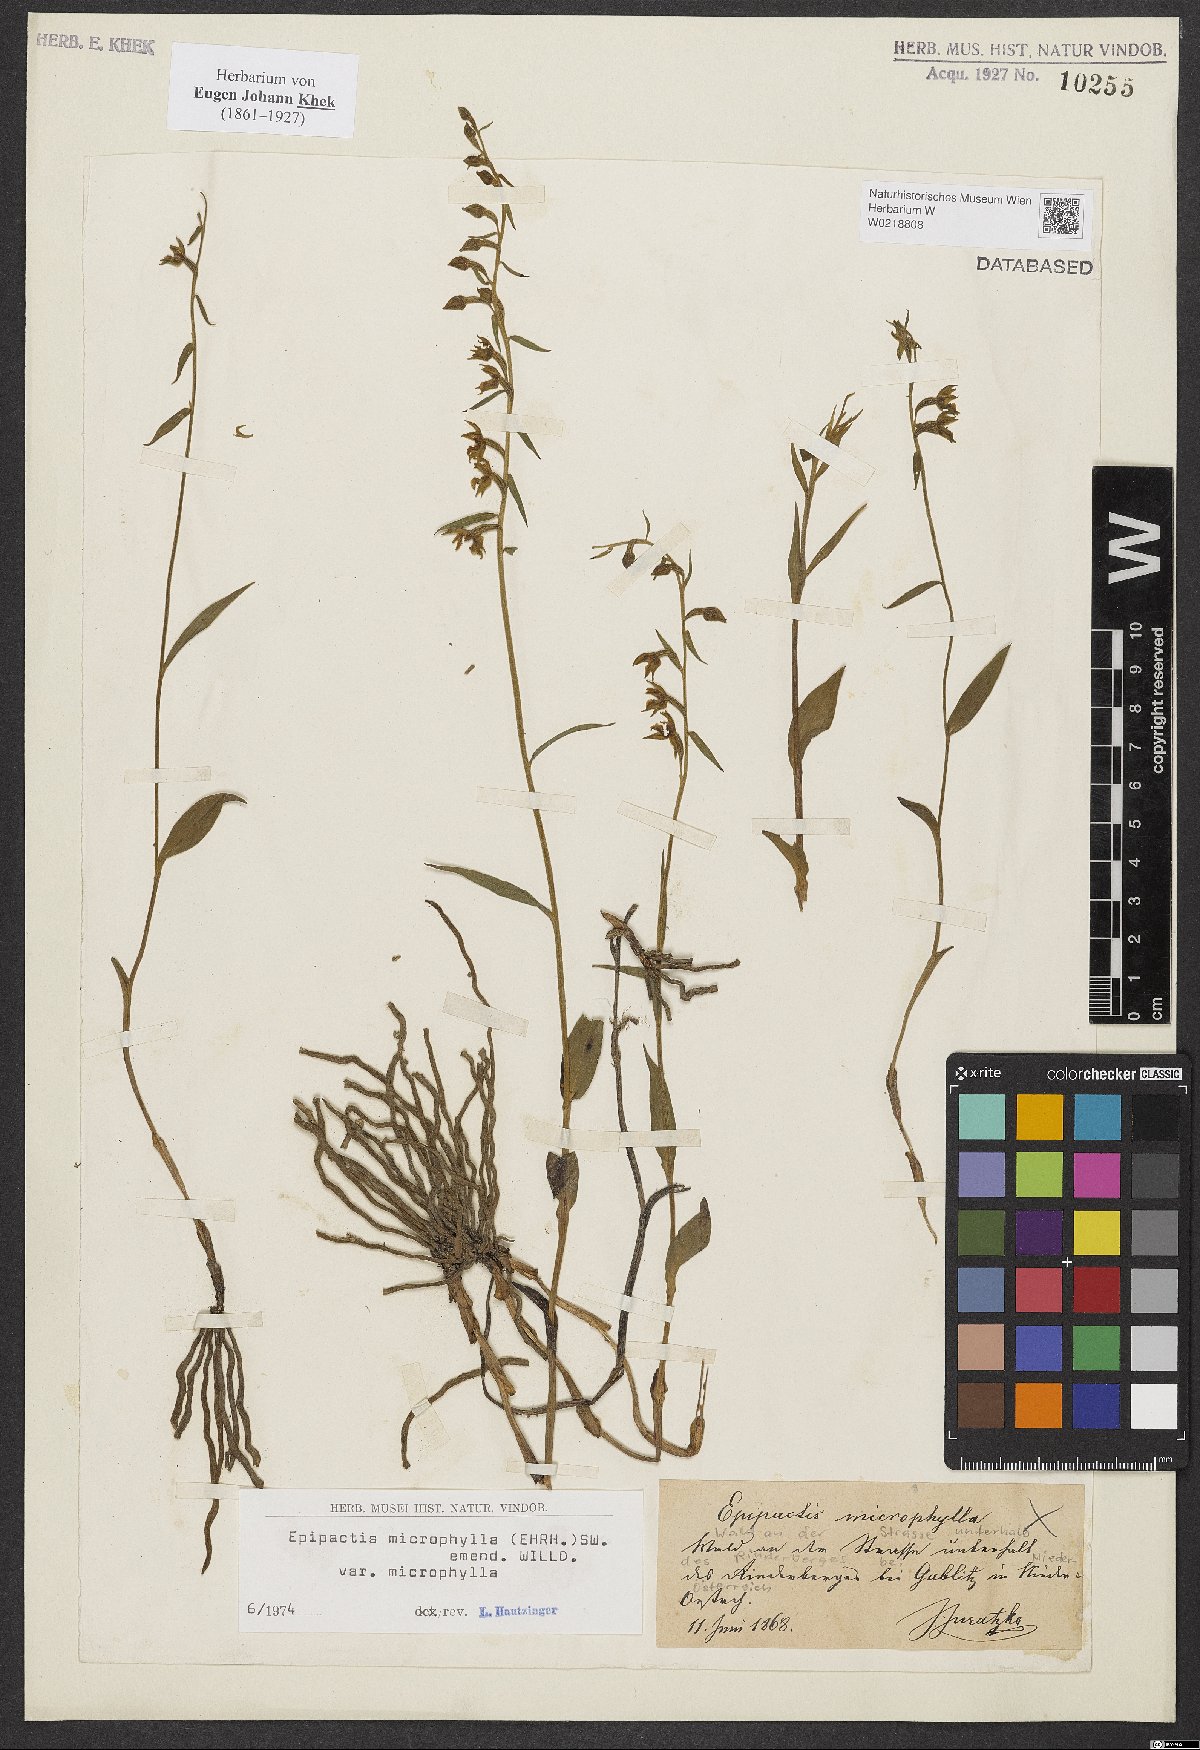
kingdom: Plantae
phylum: Tracheophyta
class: Liliopsida
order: Asparagales
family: Orchidaceae
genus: Epipactis
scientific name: Epipactis microphylla
